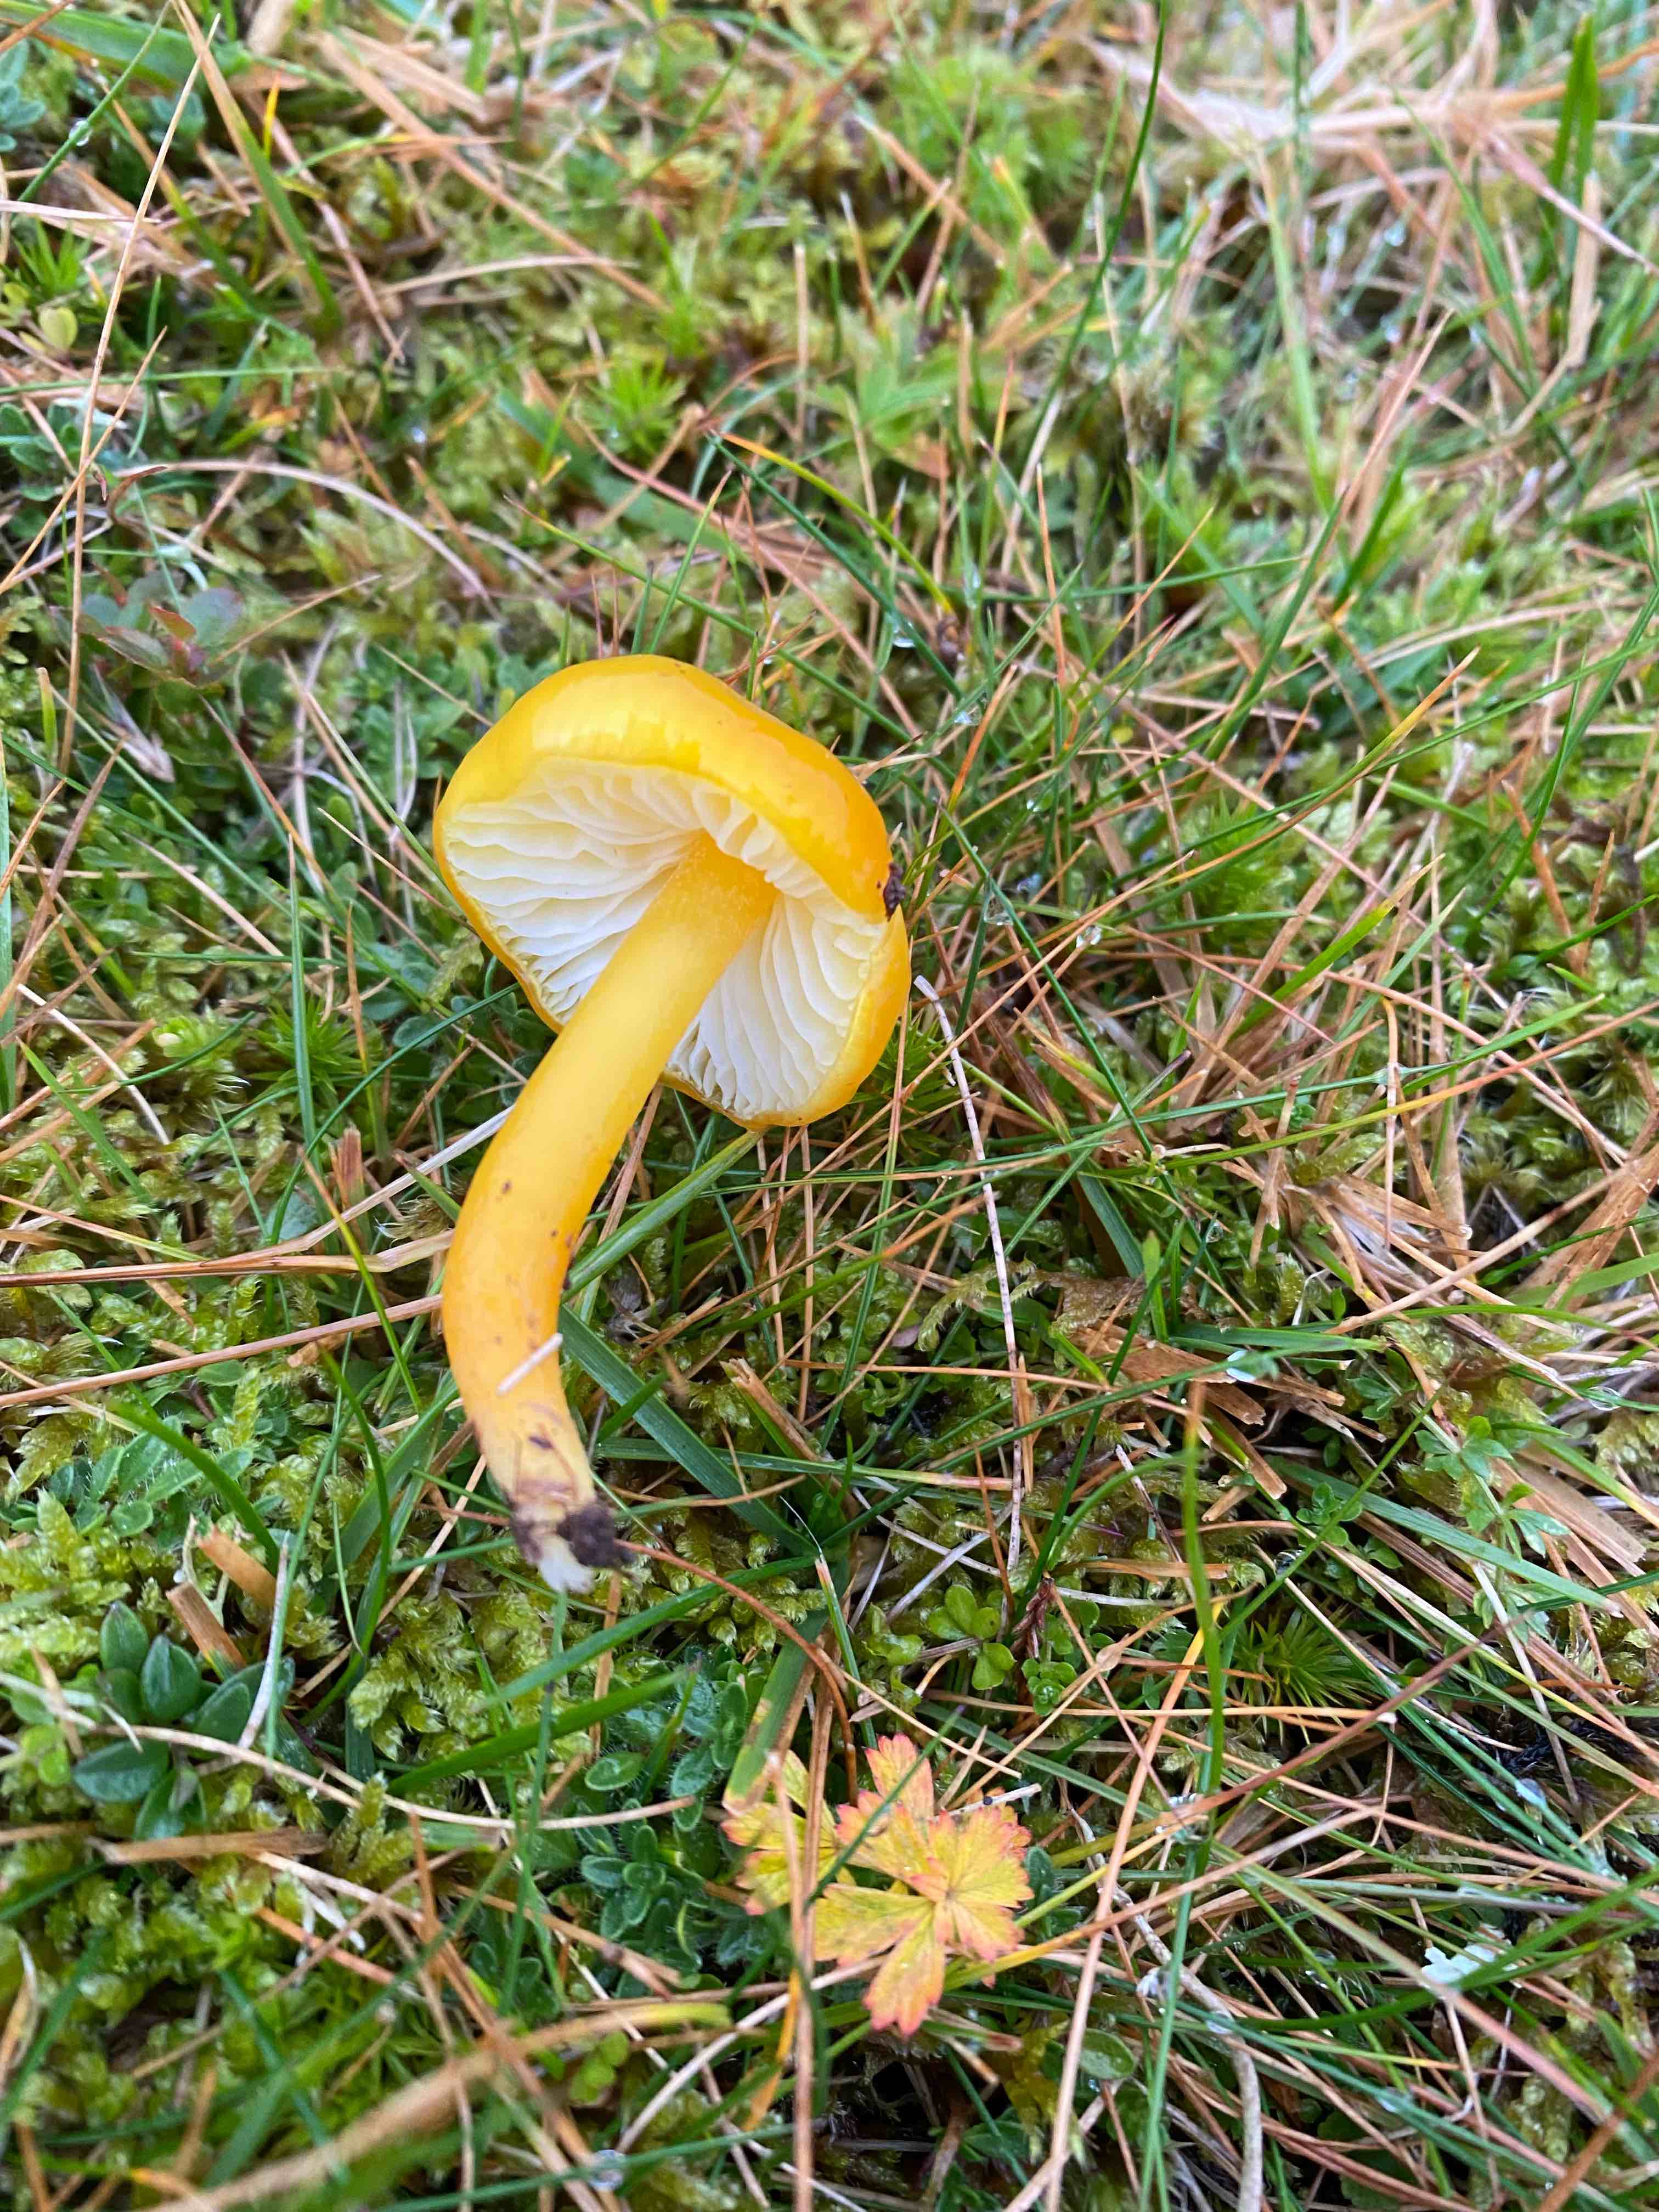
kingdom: Fungi
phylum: Basidiomycota
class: Agaricomycetes
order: Agaricales
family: Hygrophoraceae
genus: Hygrocybe
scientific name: Hygrocybe chlorophana
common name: gul vokshat
